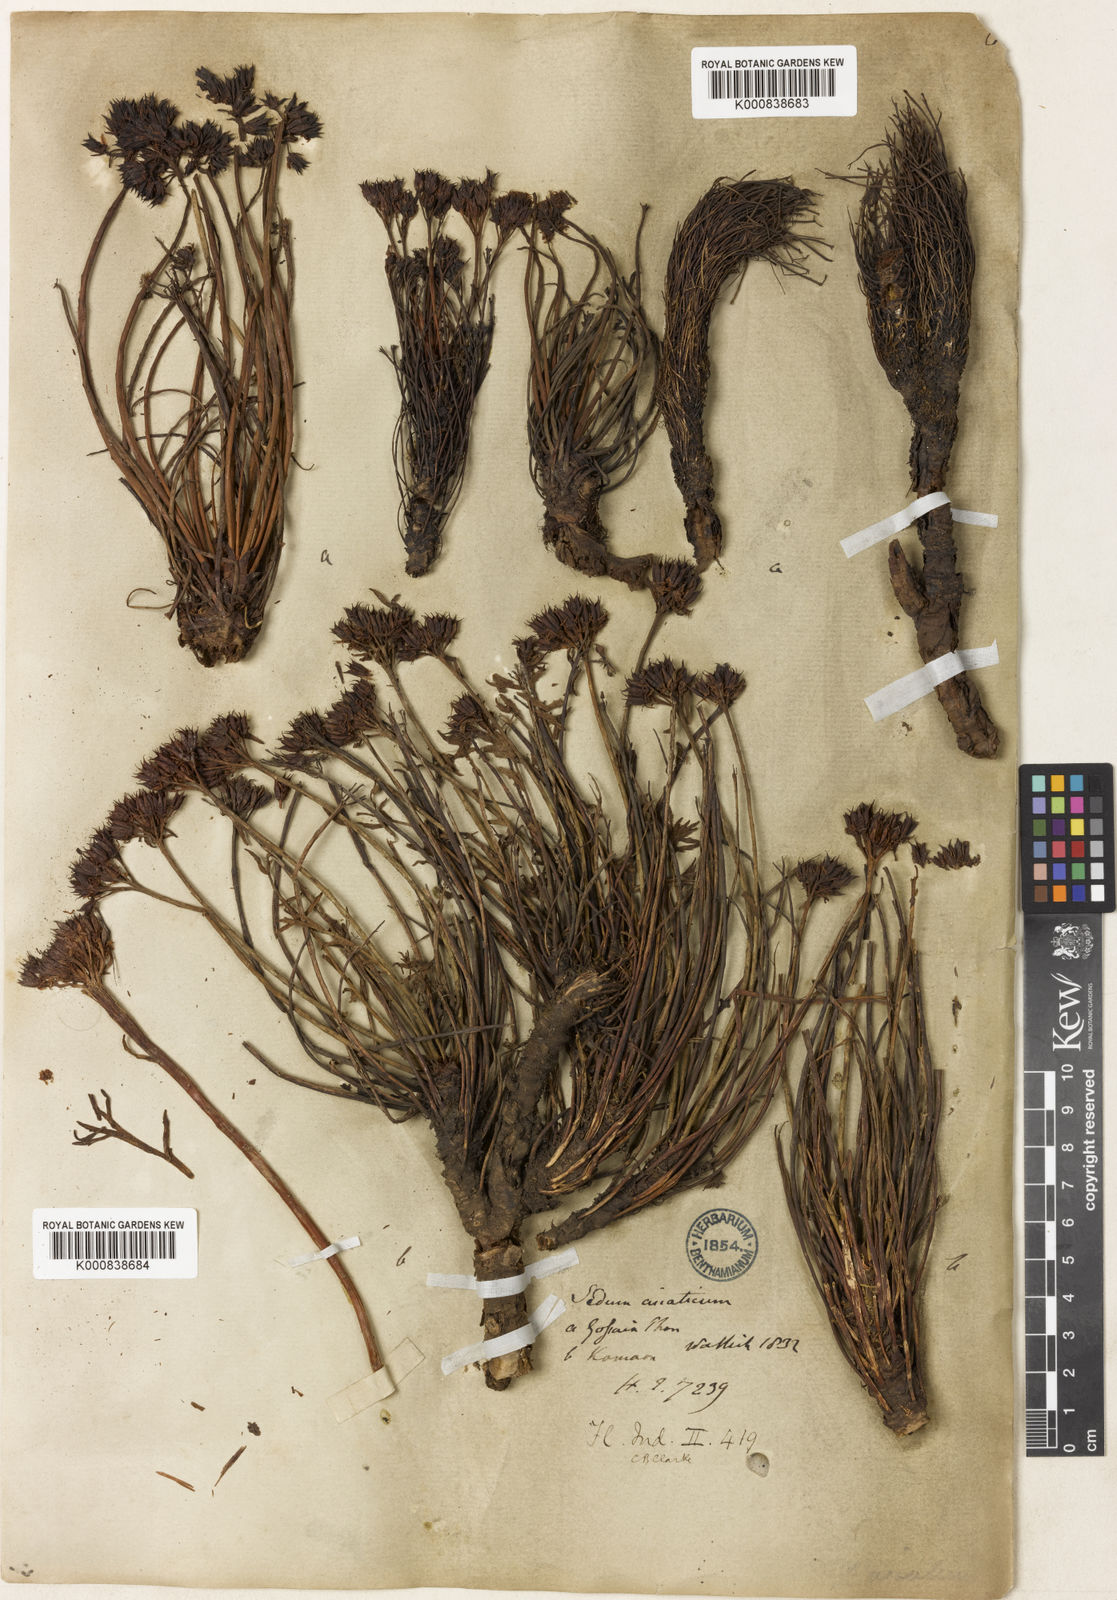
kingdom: Plantae
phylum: Tracheophyta
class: Magnoliopsida
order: Saxifragales
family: Crassulaceae
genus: Rhodiola
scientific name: Rhodiola wallichiana
